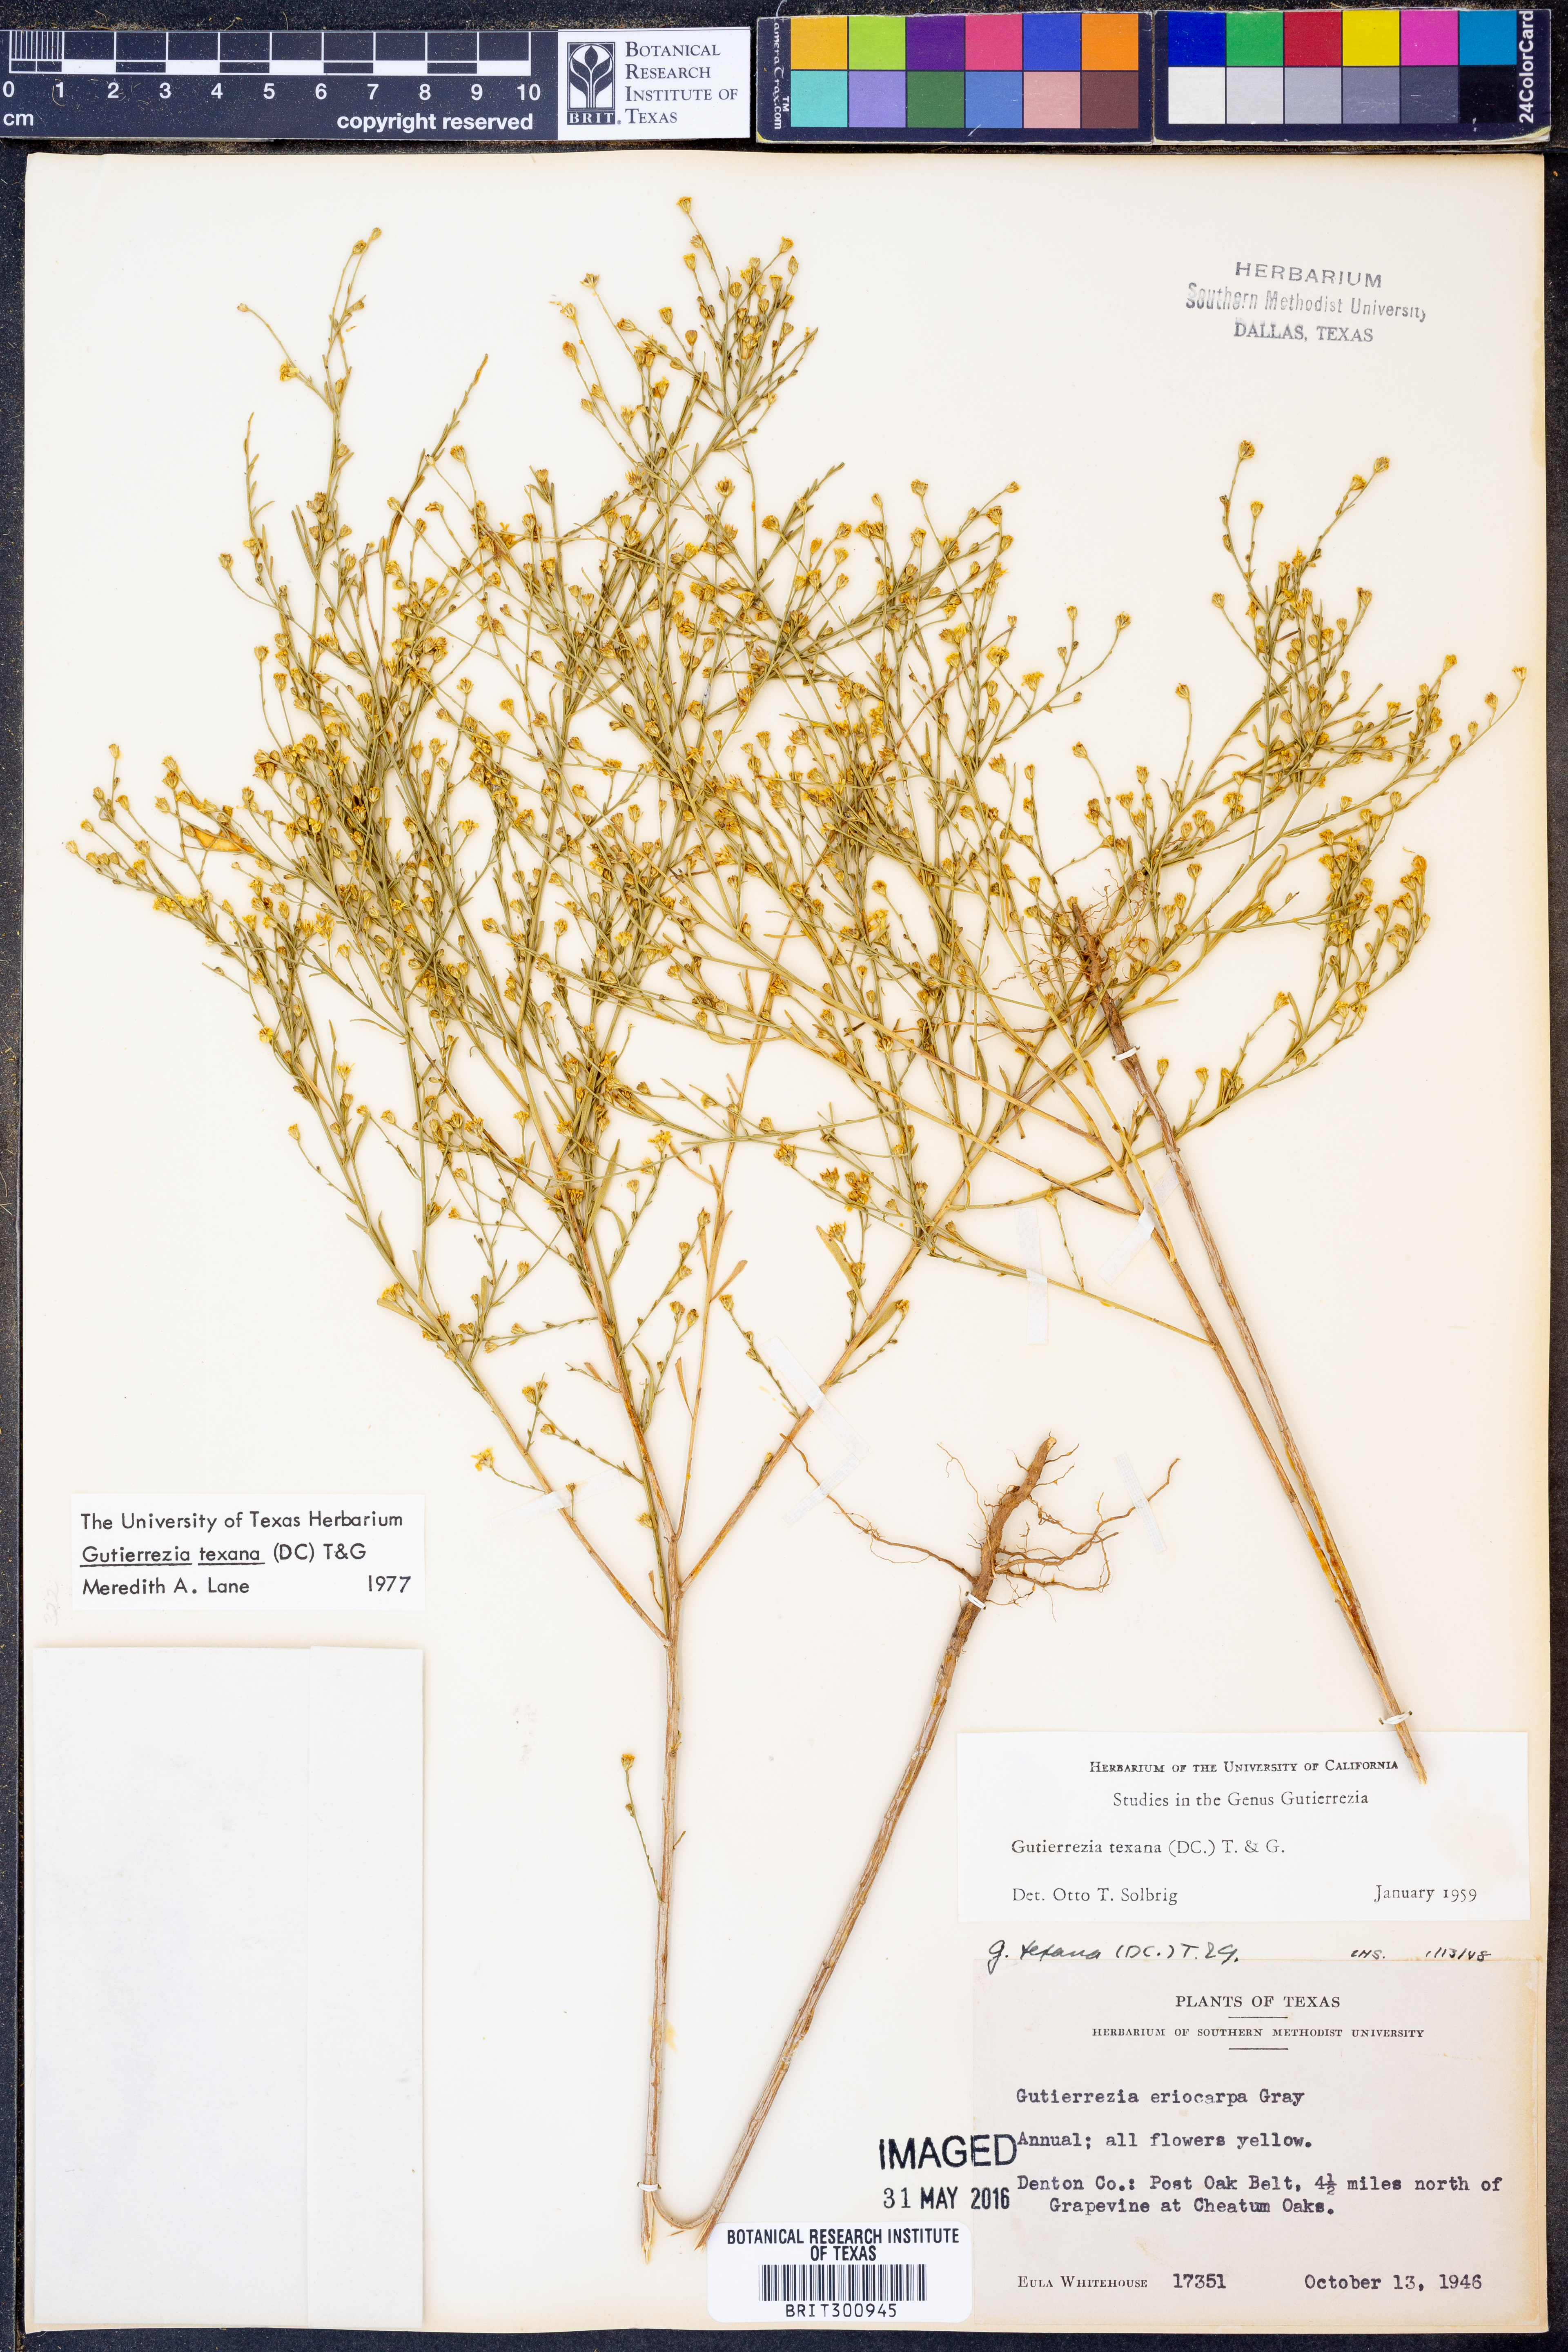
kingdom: Plantae
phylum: Tracheophyta
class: Magnoliopsida
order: Asterales
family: Asteraceae
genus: Gutierrezia
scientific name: Gutierrezia texana
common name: Texas snakeweed
